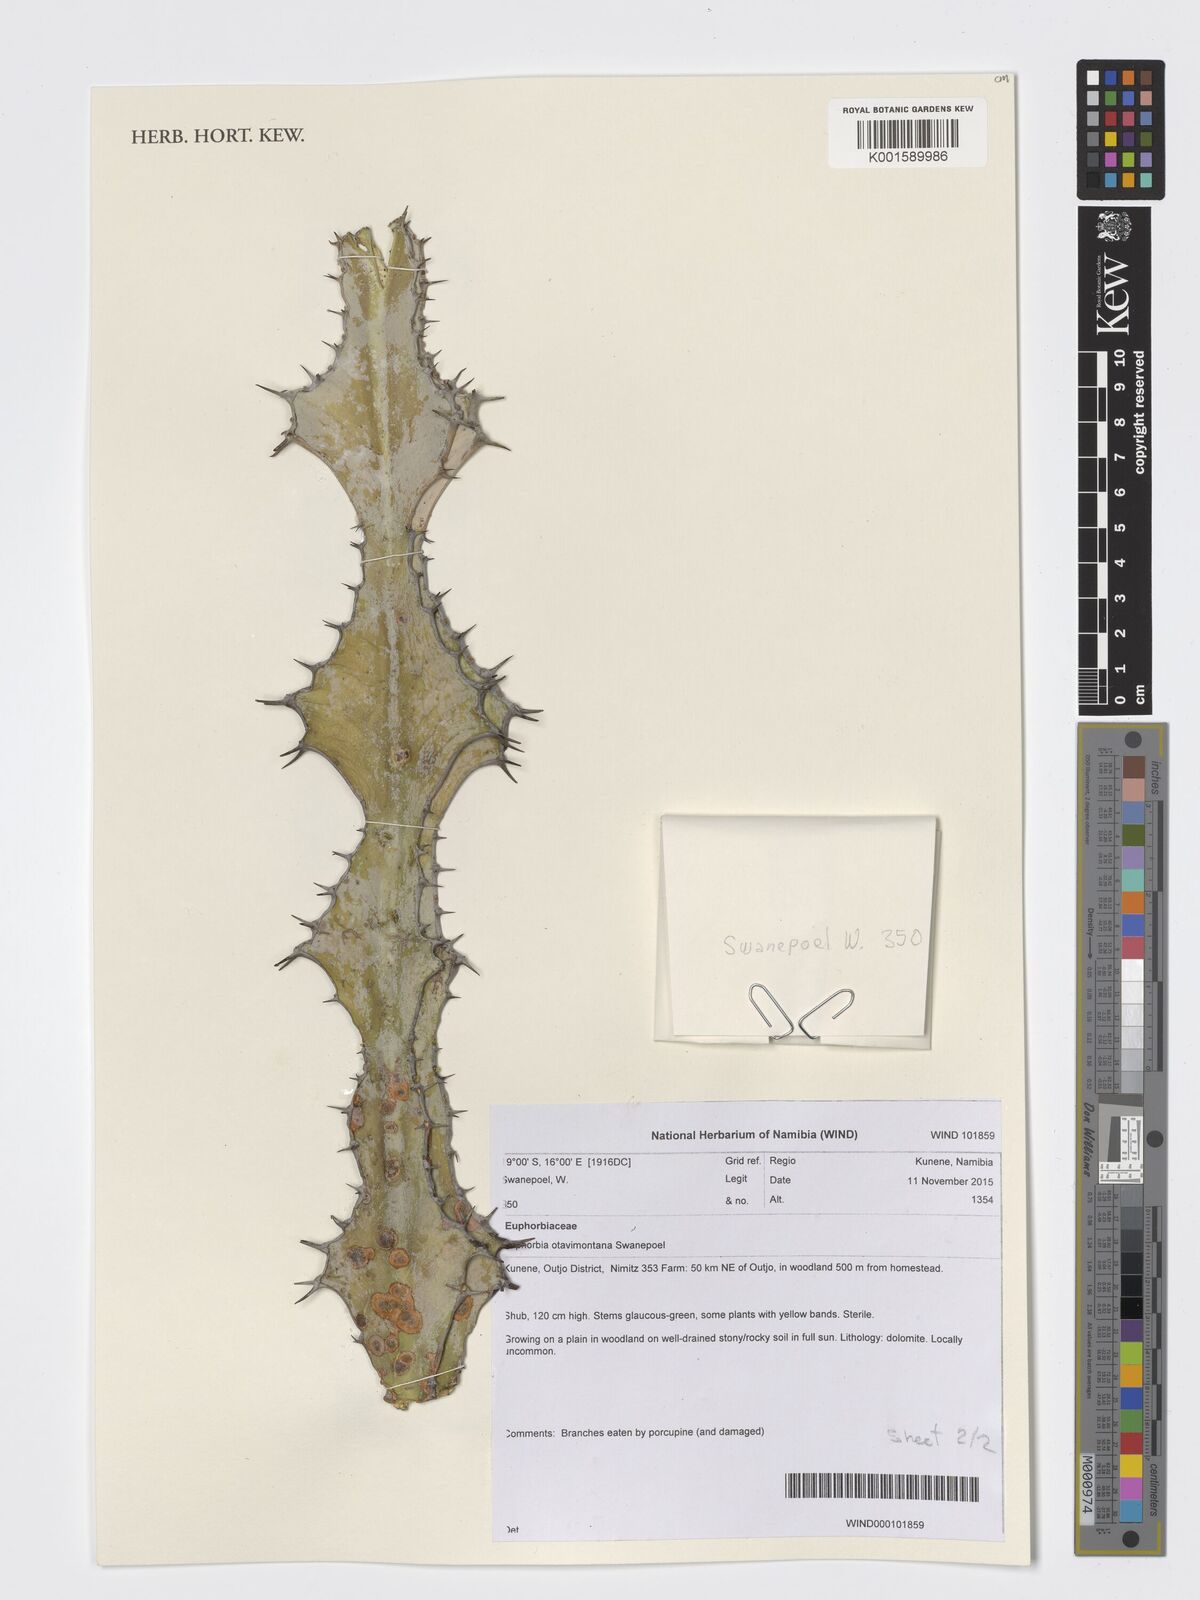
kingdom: Plantae
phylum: Tracheophyta
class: Magnoliopsida
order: Malpighiales
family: Euphorbiaceae
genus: Euphorbia
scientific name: Euphorbia otavibergensis
